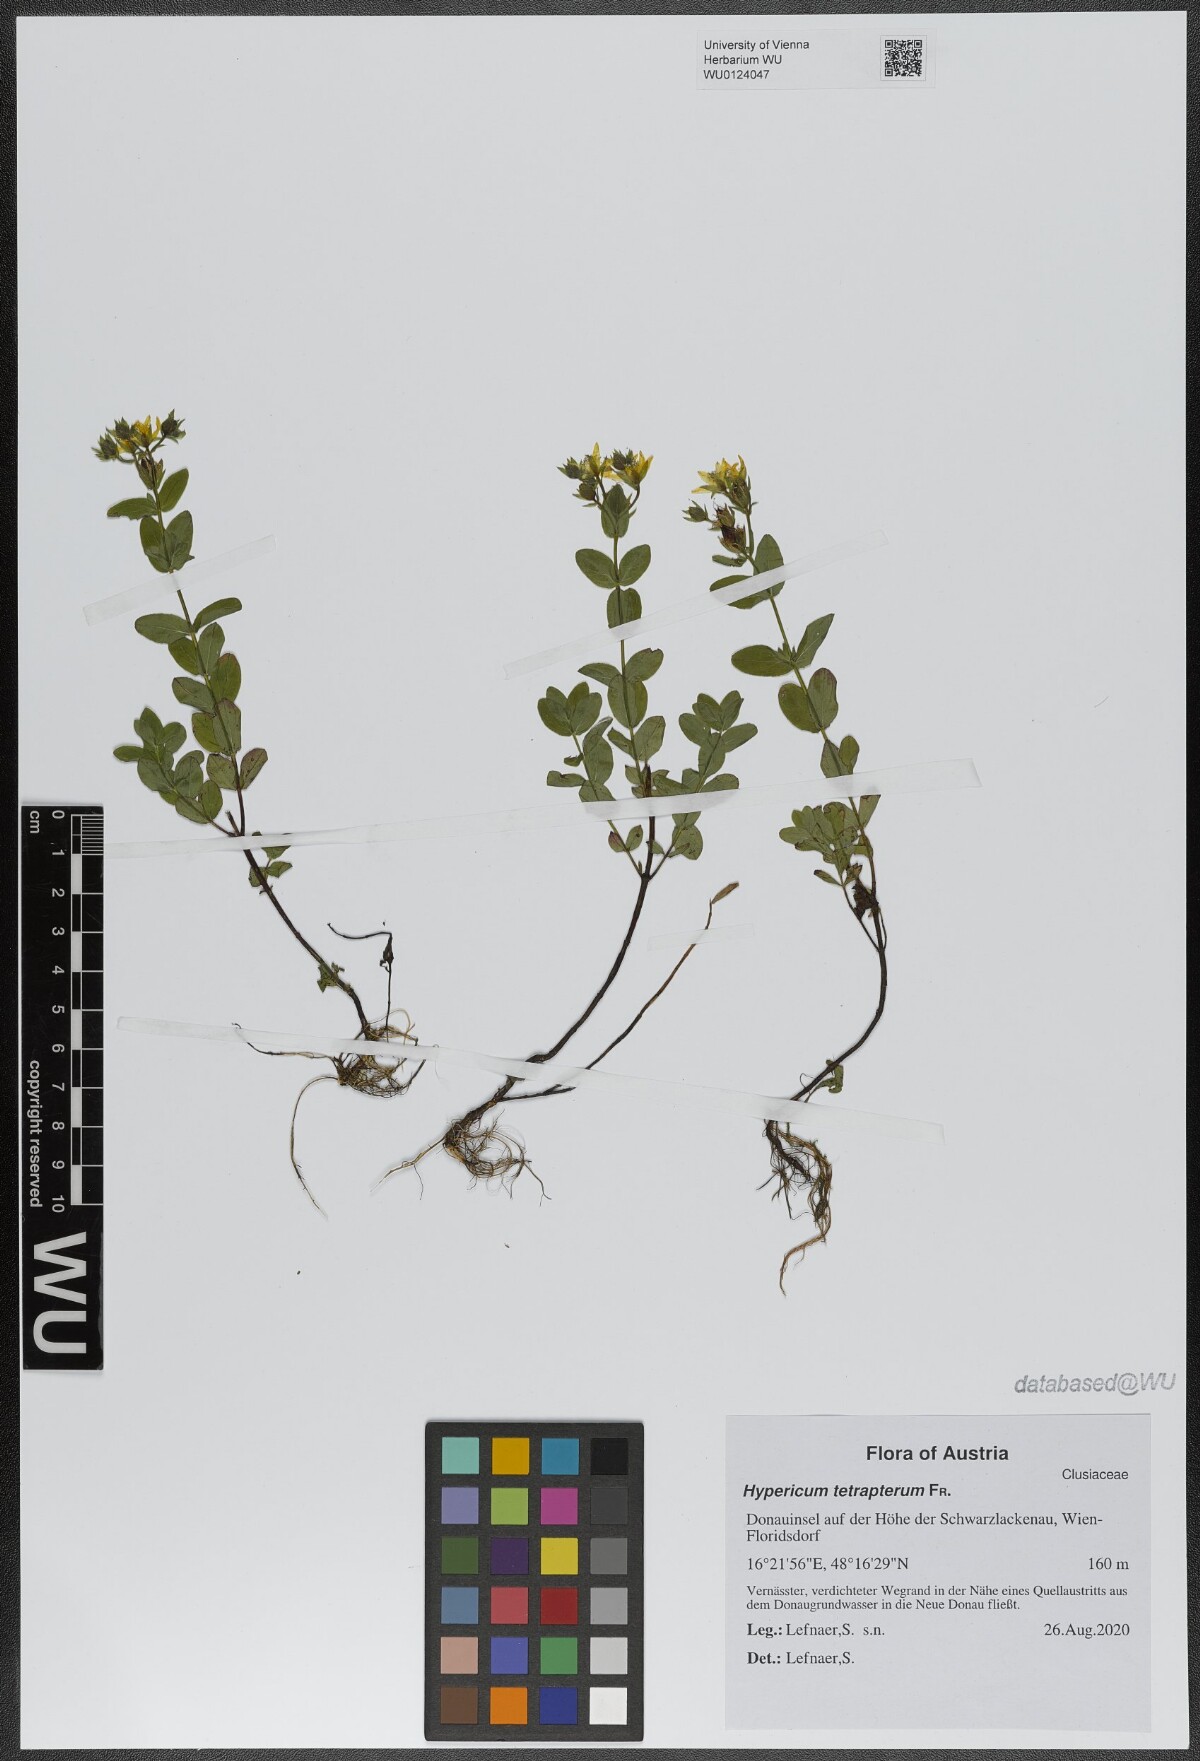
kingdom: Plantae
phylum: Tracheophyta
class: Magnoliopsida
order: Malpighiales
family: Hypericaceae
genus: Hypericum
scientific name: Hypericum tetrapterum
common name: Square-stalked st. john's-wort
